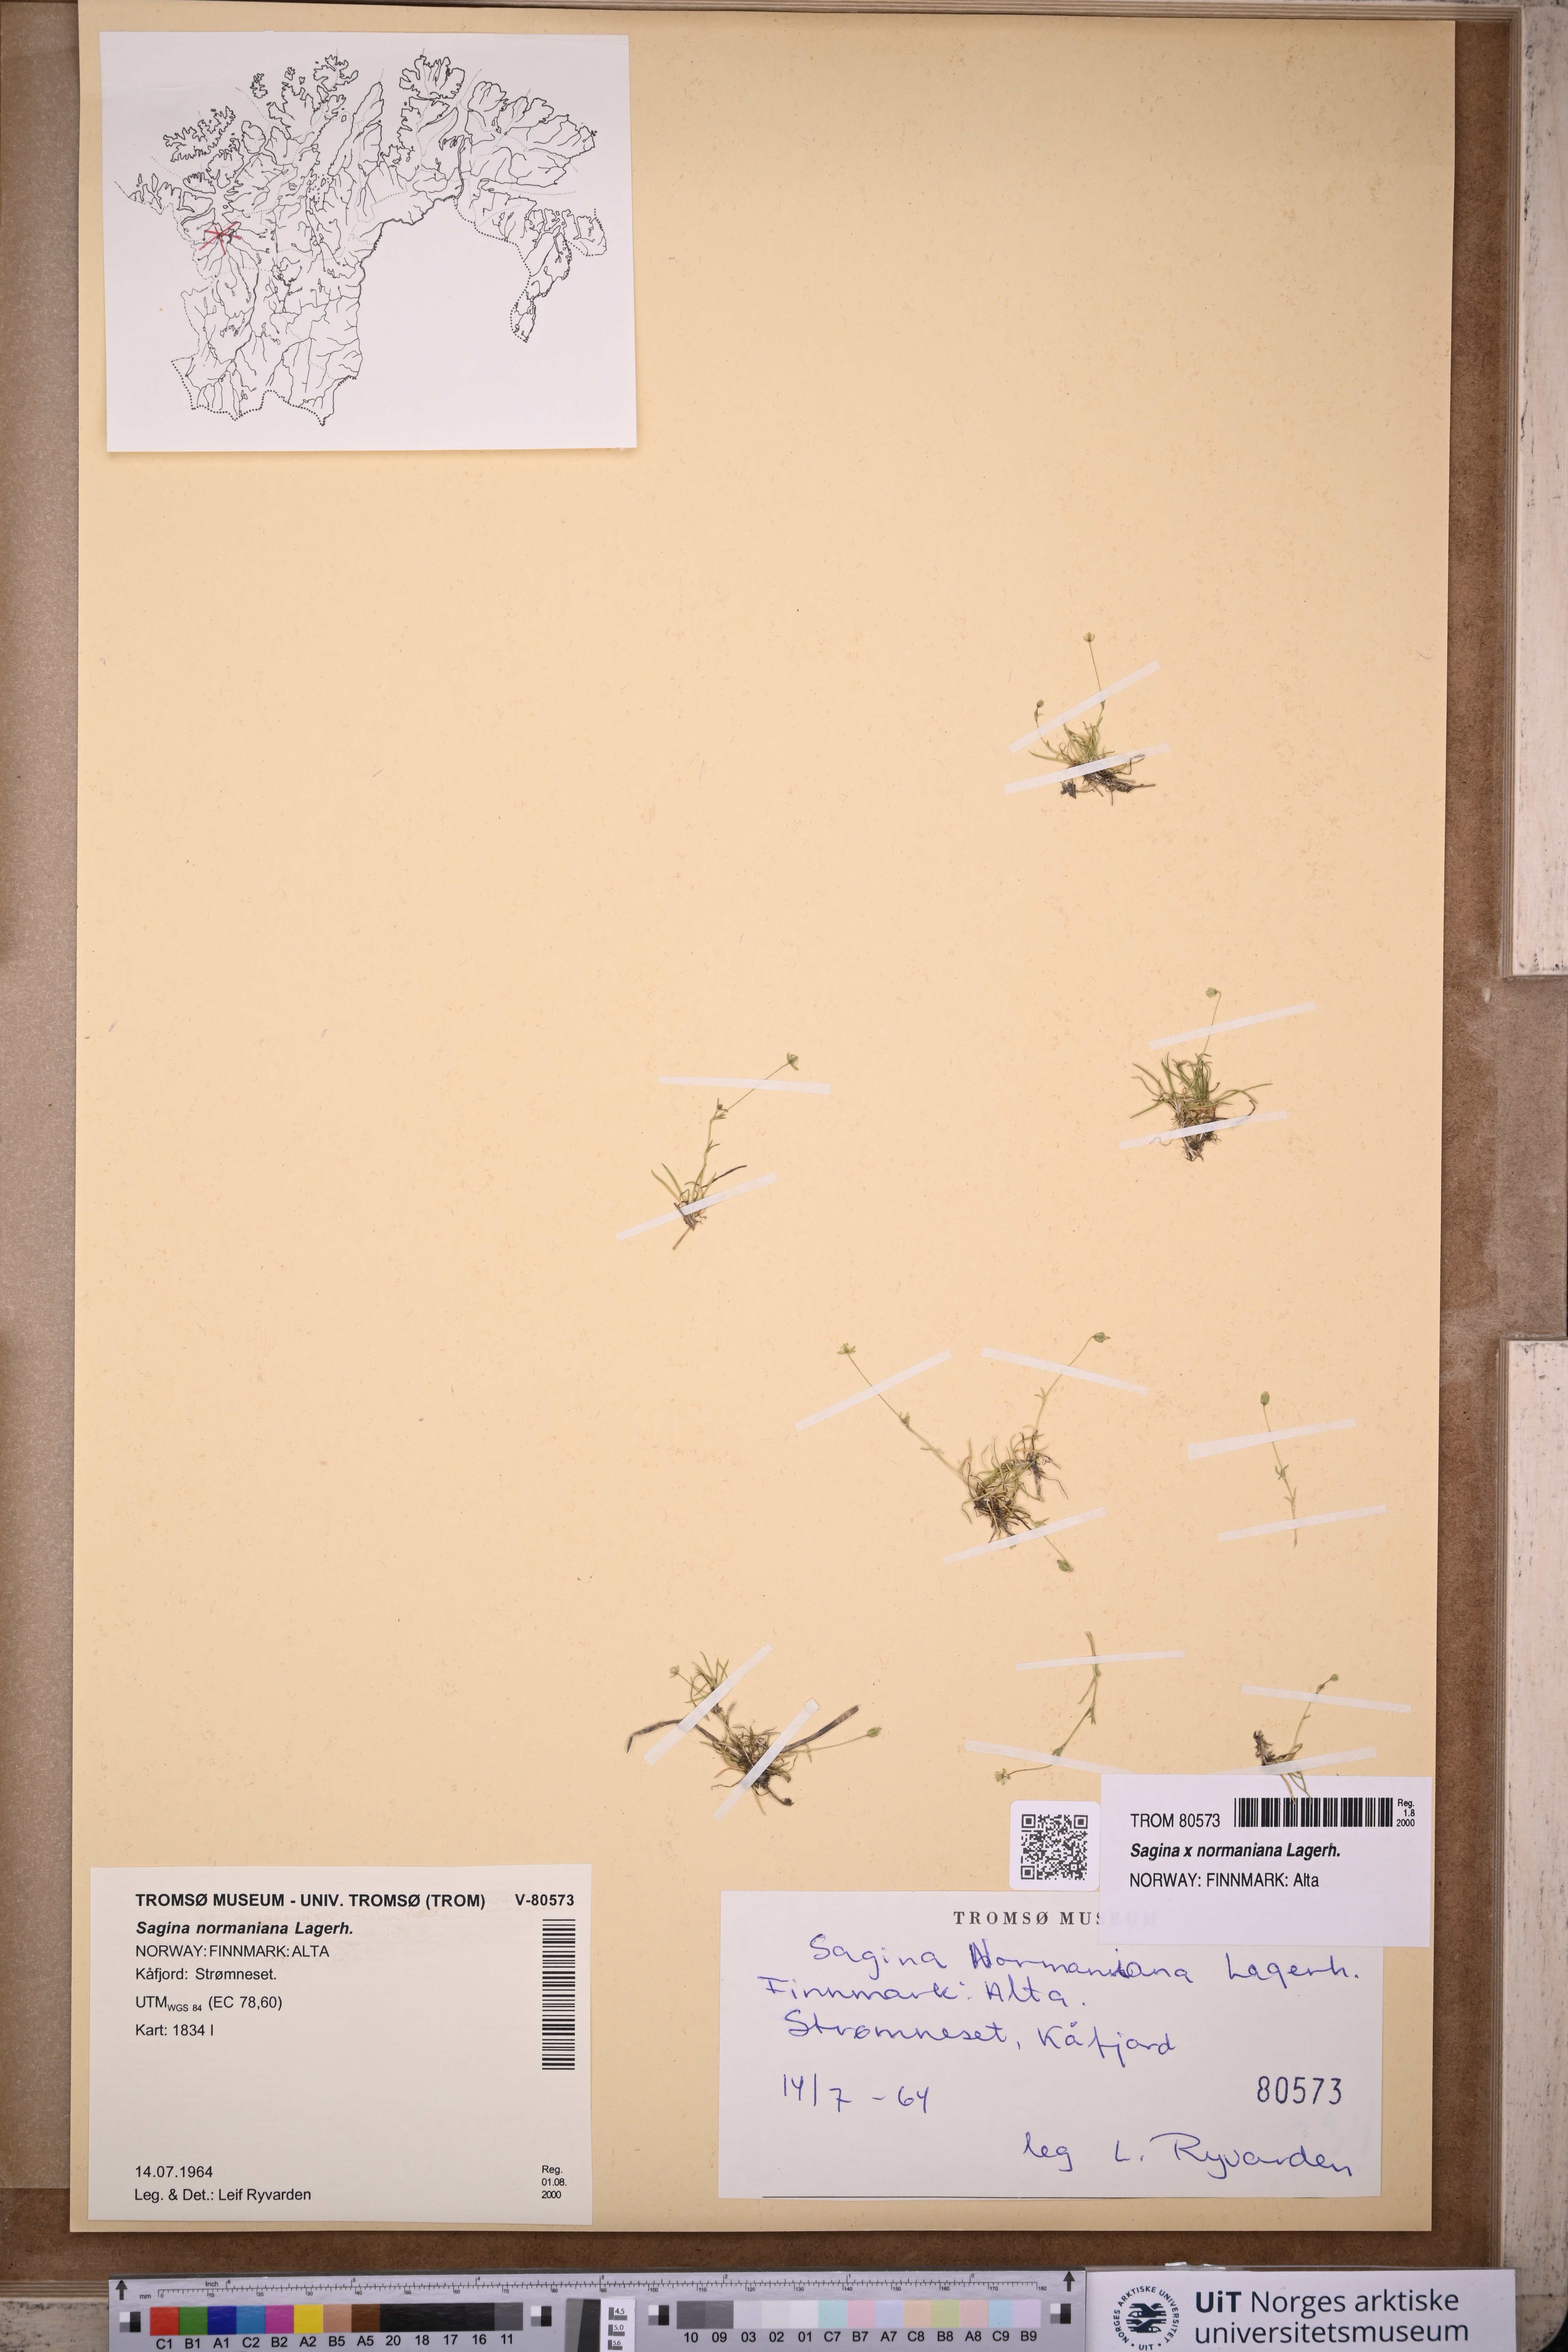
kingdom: Plantae
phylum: Tracheophyta
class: Magnoliopsida
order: Caryophyllales
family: Caryophyllaceae
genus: Sagina
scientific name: Sagina media
